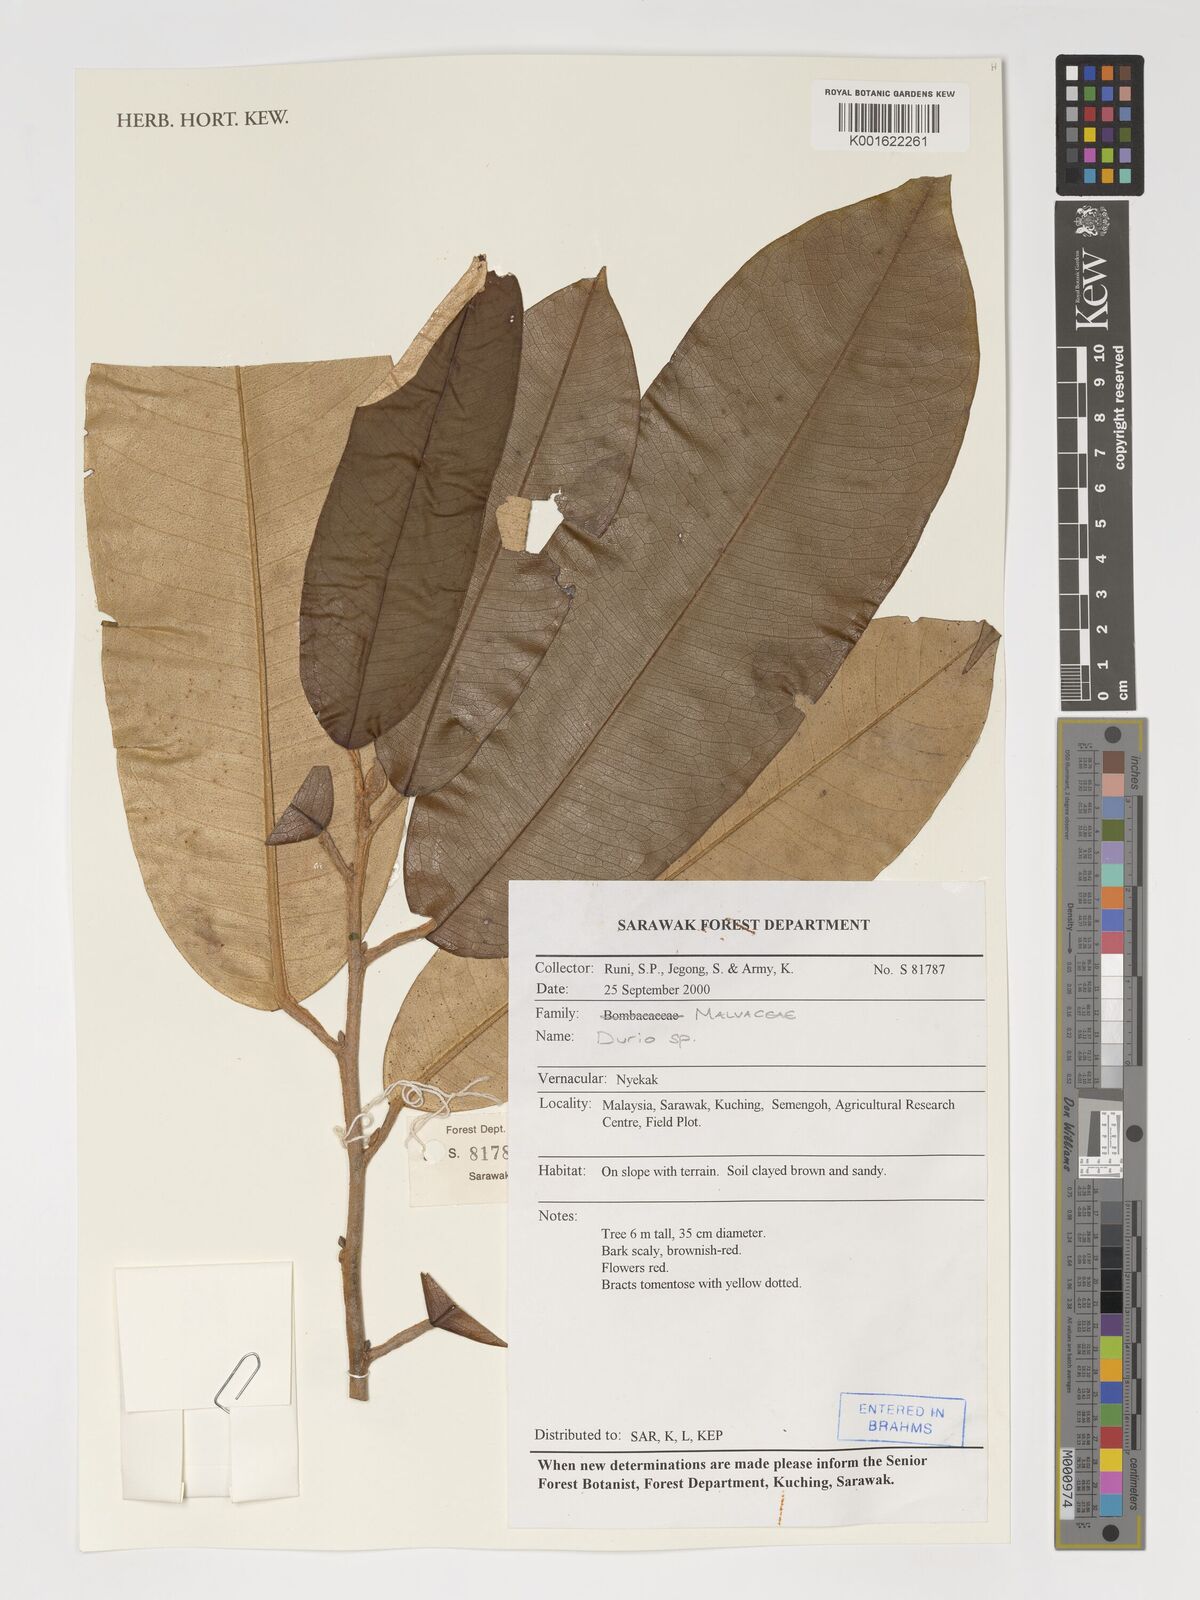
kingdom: Plantae
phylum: Tracheophyta
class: Magnoliopsida
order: Malvales
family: Malvaceae
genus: Durio
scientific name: Durio
